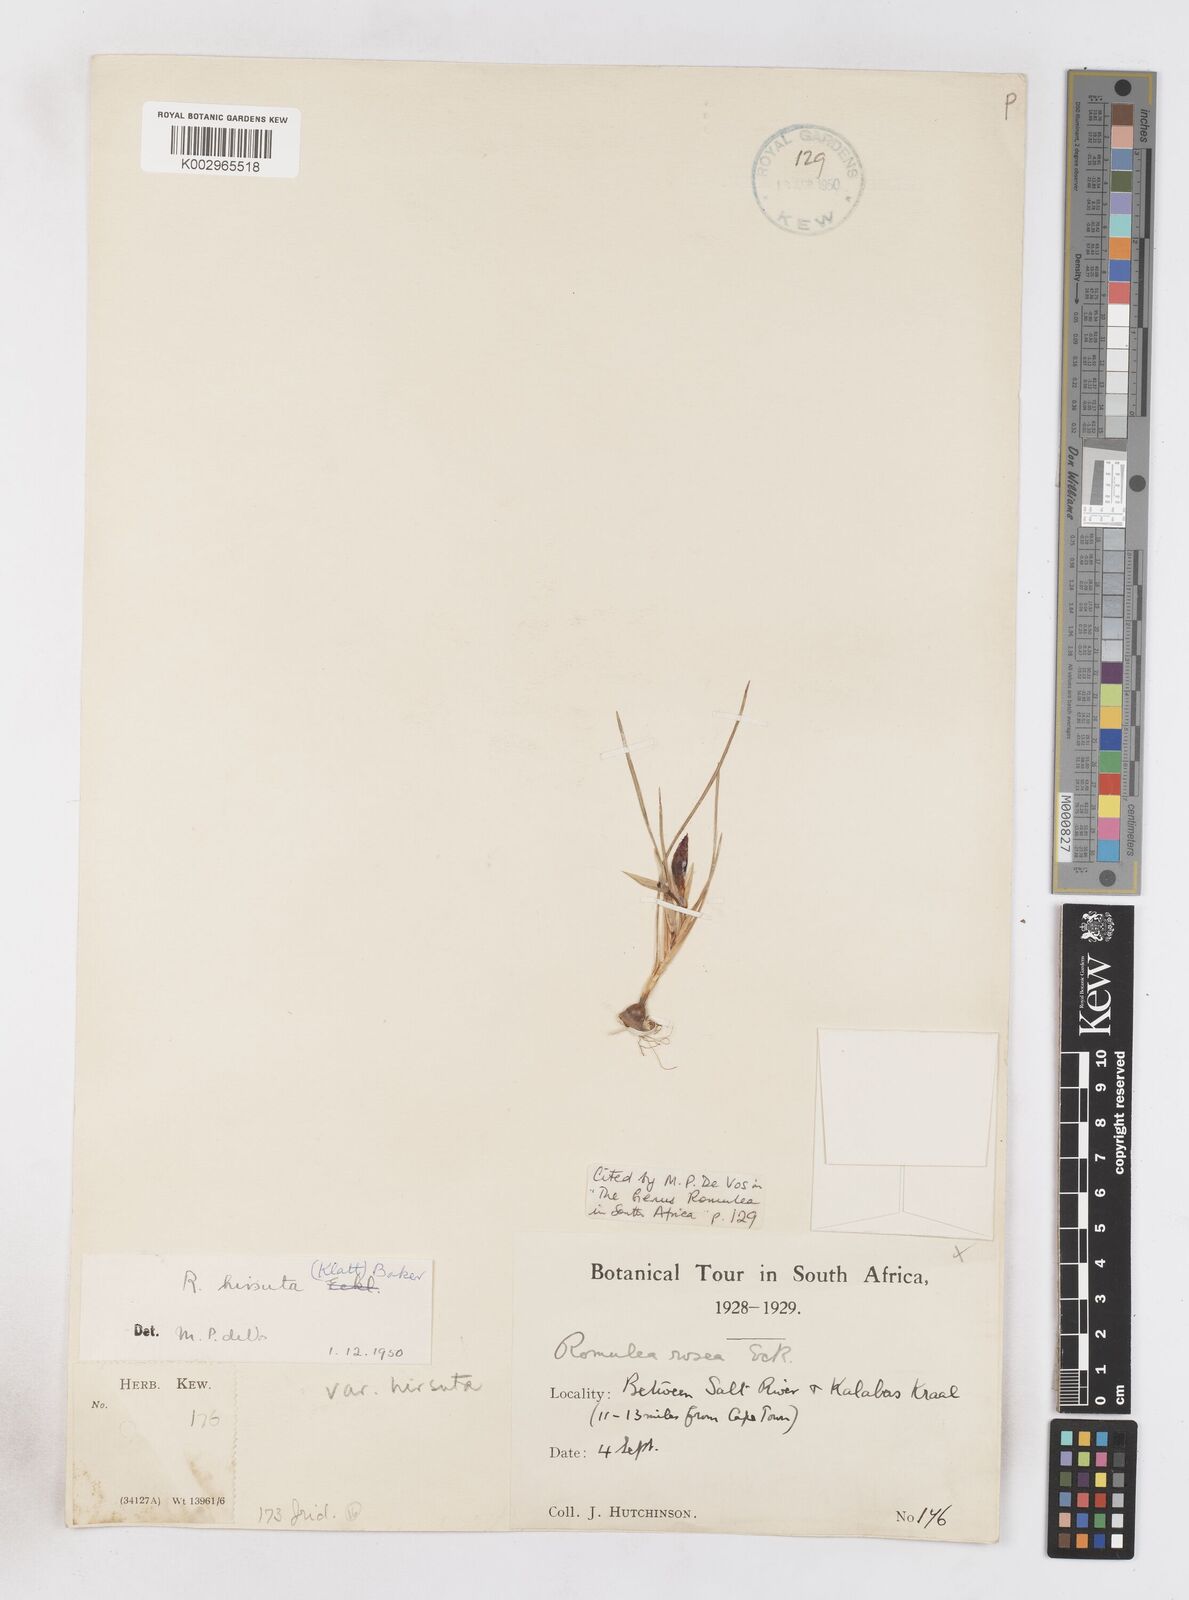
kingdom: Plantae
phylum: Tracheophyta
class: Liliopsida
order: Asparagales
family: Iridaceae
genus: Romulea
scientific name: Romulea hirsuta
